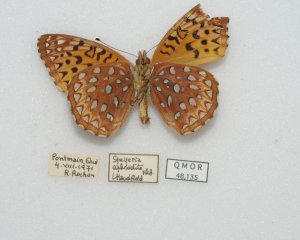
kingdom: Animalia
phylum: Arthropoda
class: Insecta
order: Lepidoptera
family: Nymphalidae
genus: Speyeria
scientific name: Speyeria aphrodite
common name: Aphrodite Fritillary
